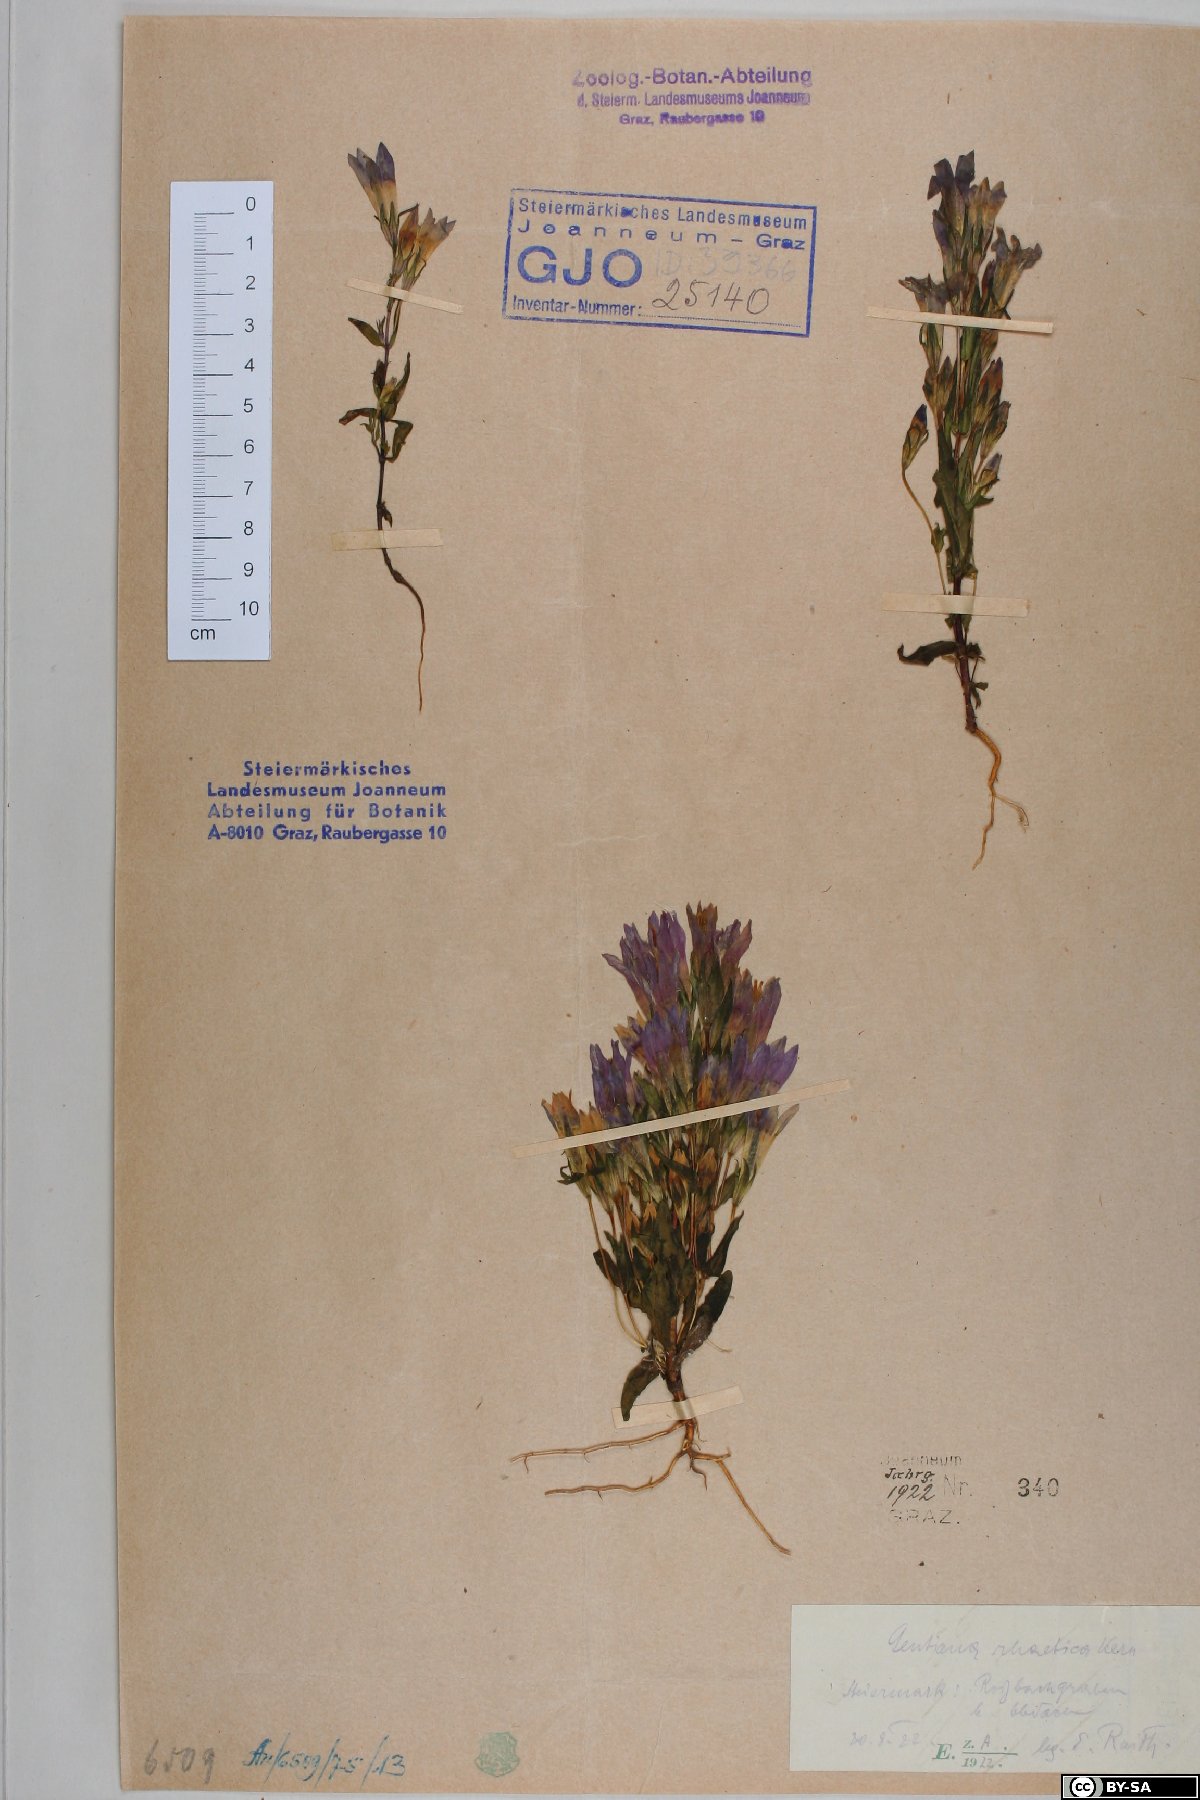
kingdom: Plantae
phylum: Tracheophyta
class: Magnoliopsida
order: Gentianales
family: Gentianaceae
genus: Gentianella
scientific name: Gentianella rhaetica
